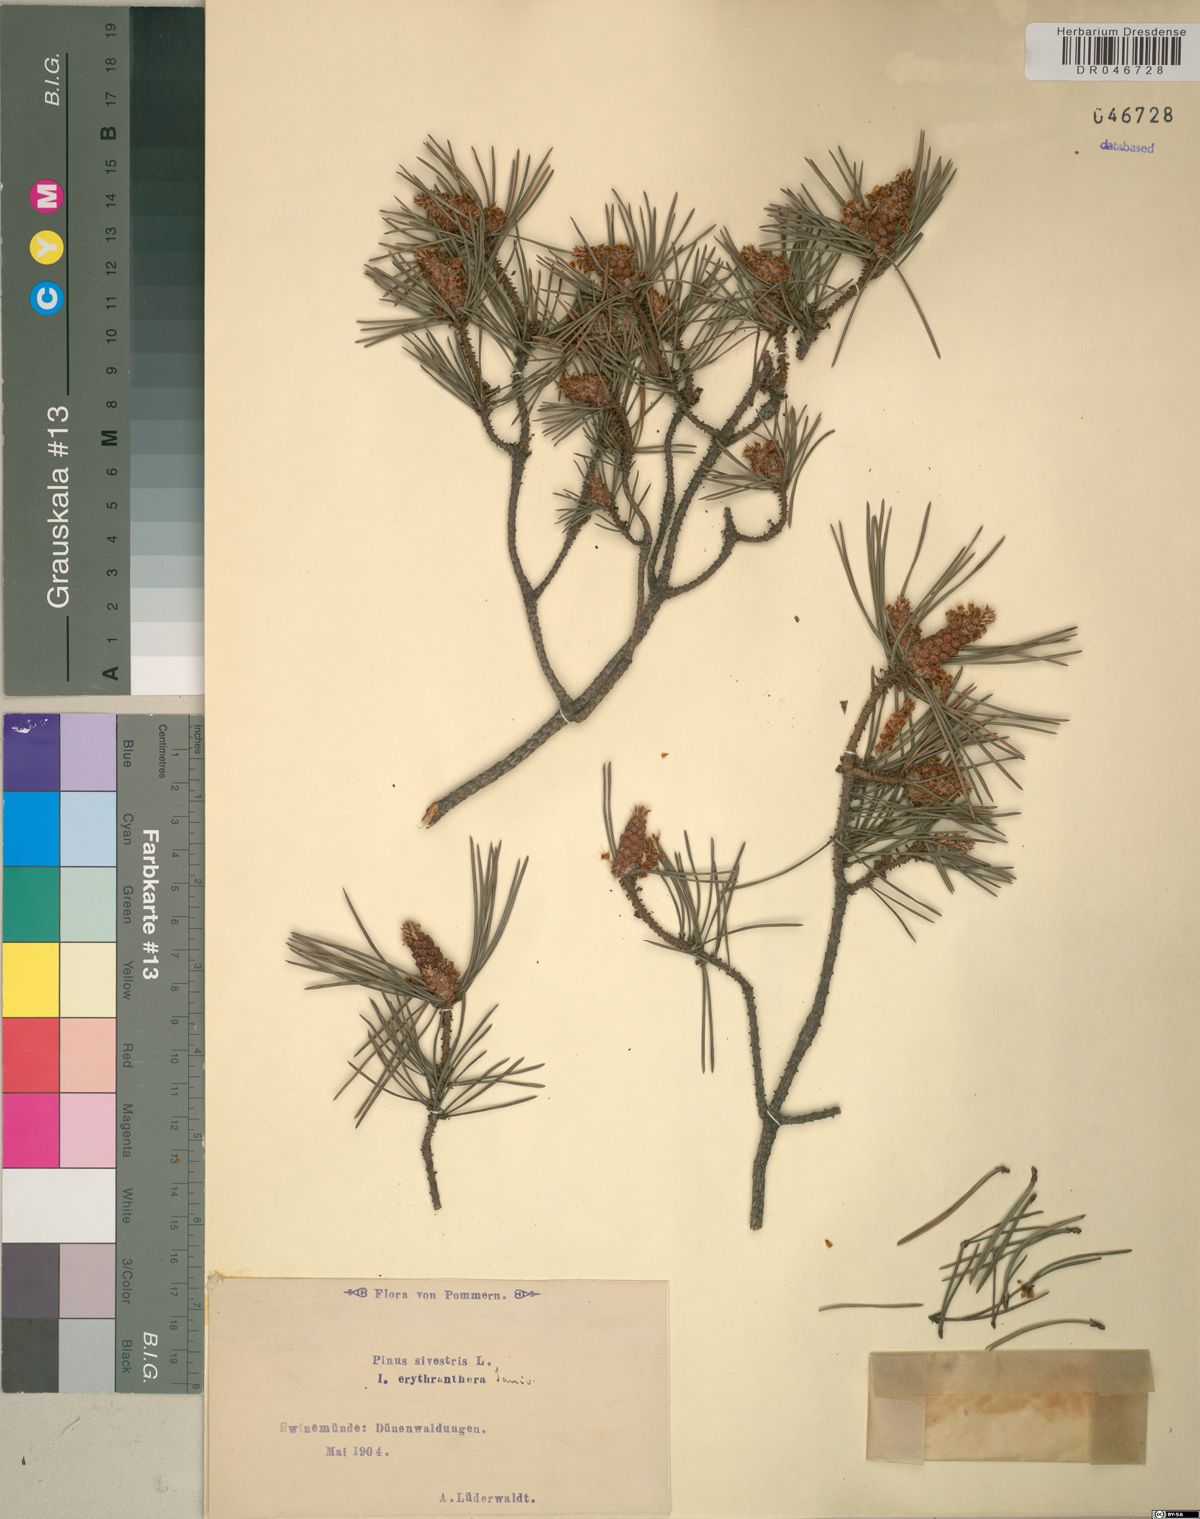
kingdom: Plantae
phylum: Tracheophyta
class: Pinopsida
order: Pinales
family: Pinaceae
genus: Pinus
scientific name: Pinus sylvestris
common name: Scots pine
